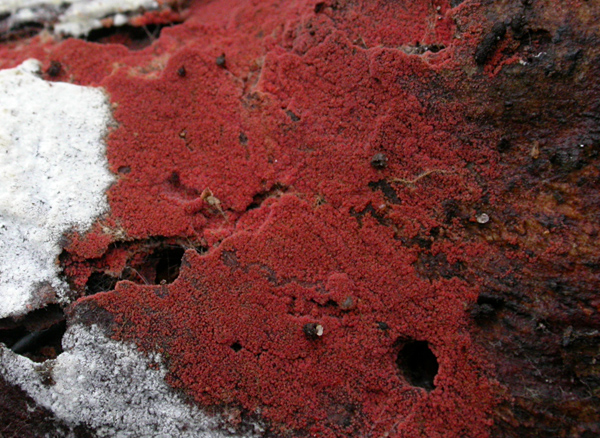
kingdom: Fungi
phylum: Basidiomycota
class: Agaricomycetes
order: Thelephorales
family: Thelephoraceae
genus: Tomentella
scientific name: Tomentella lateritia
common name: teglrød frynsehinde
